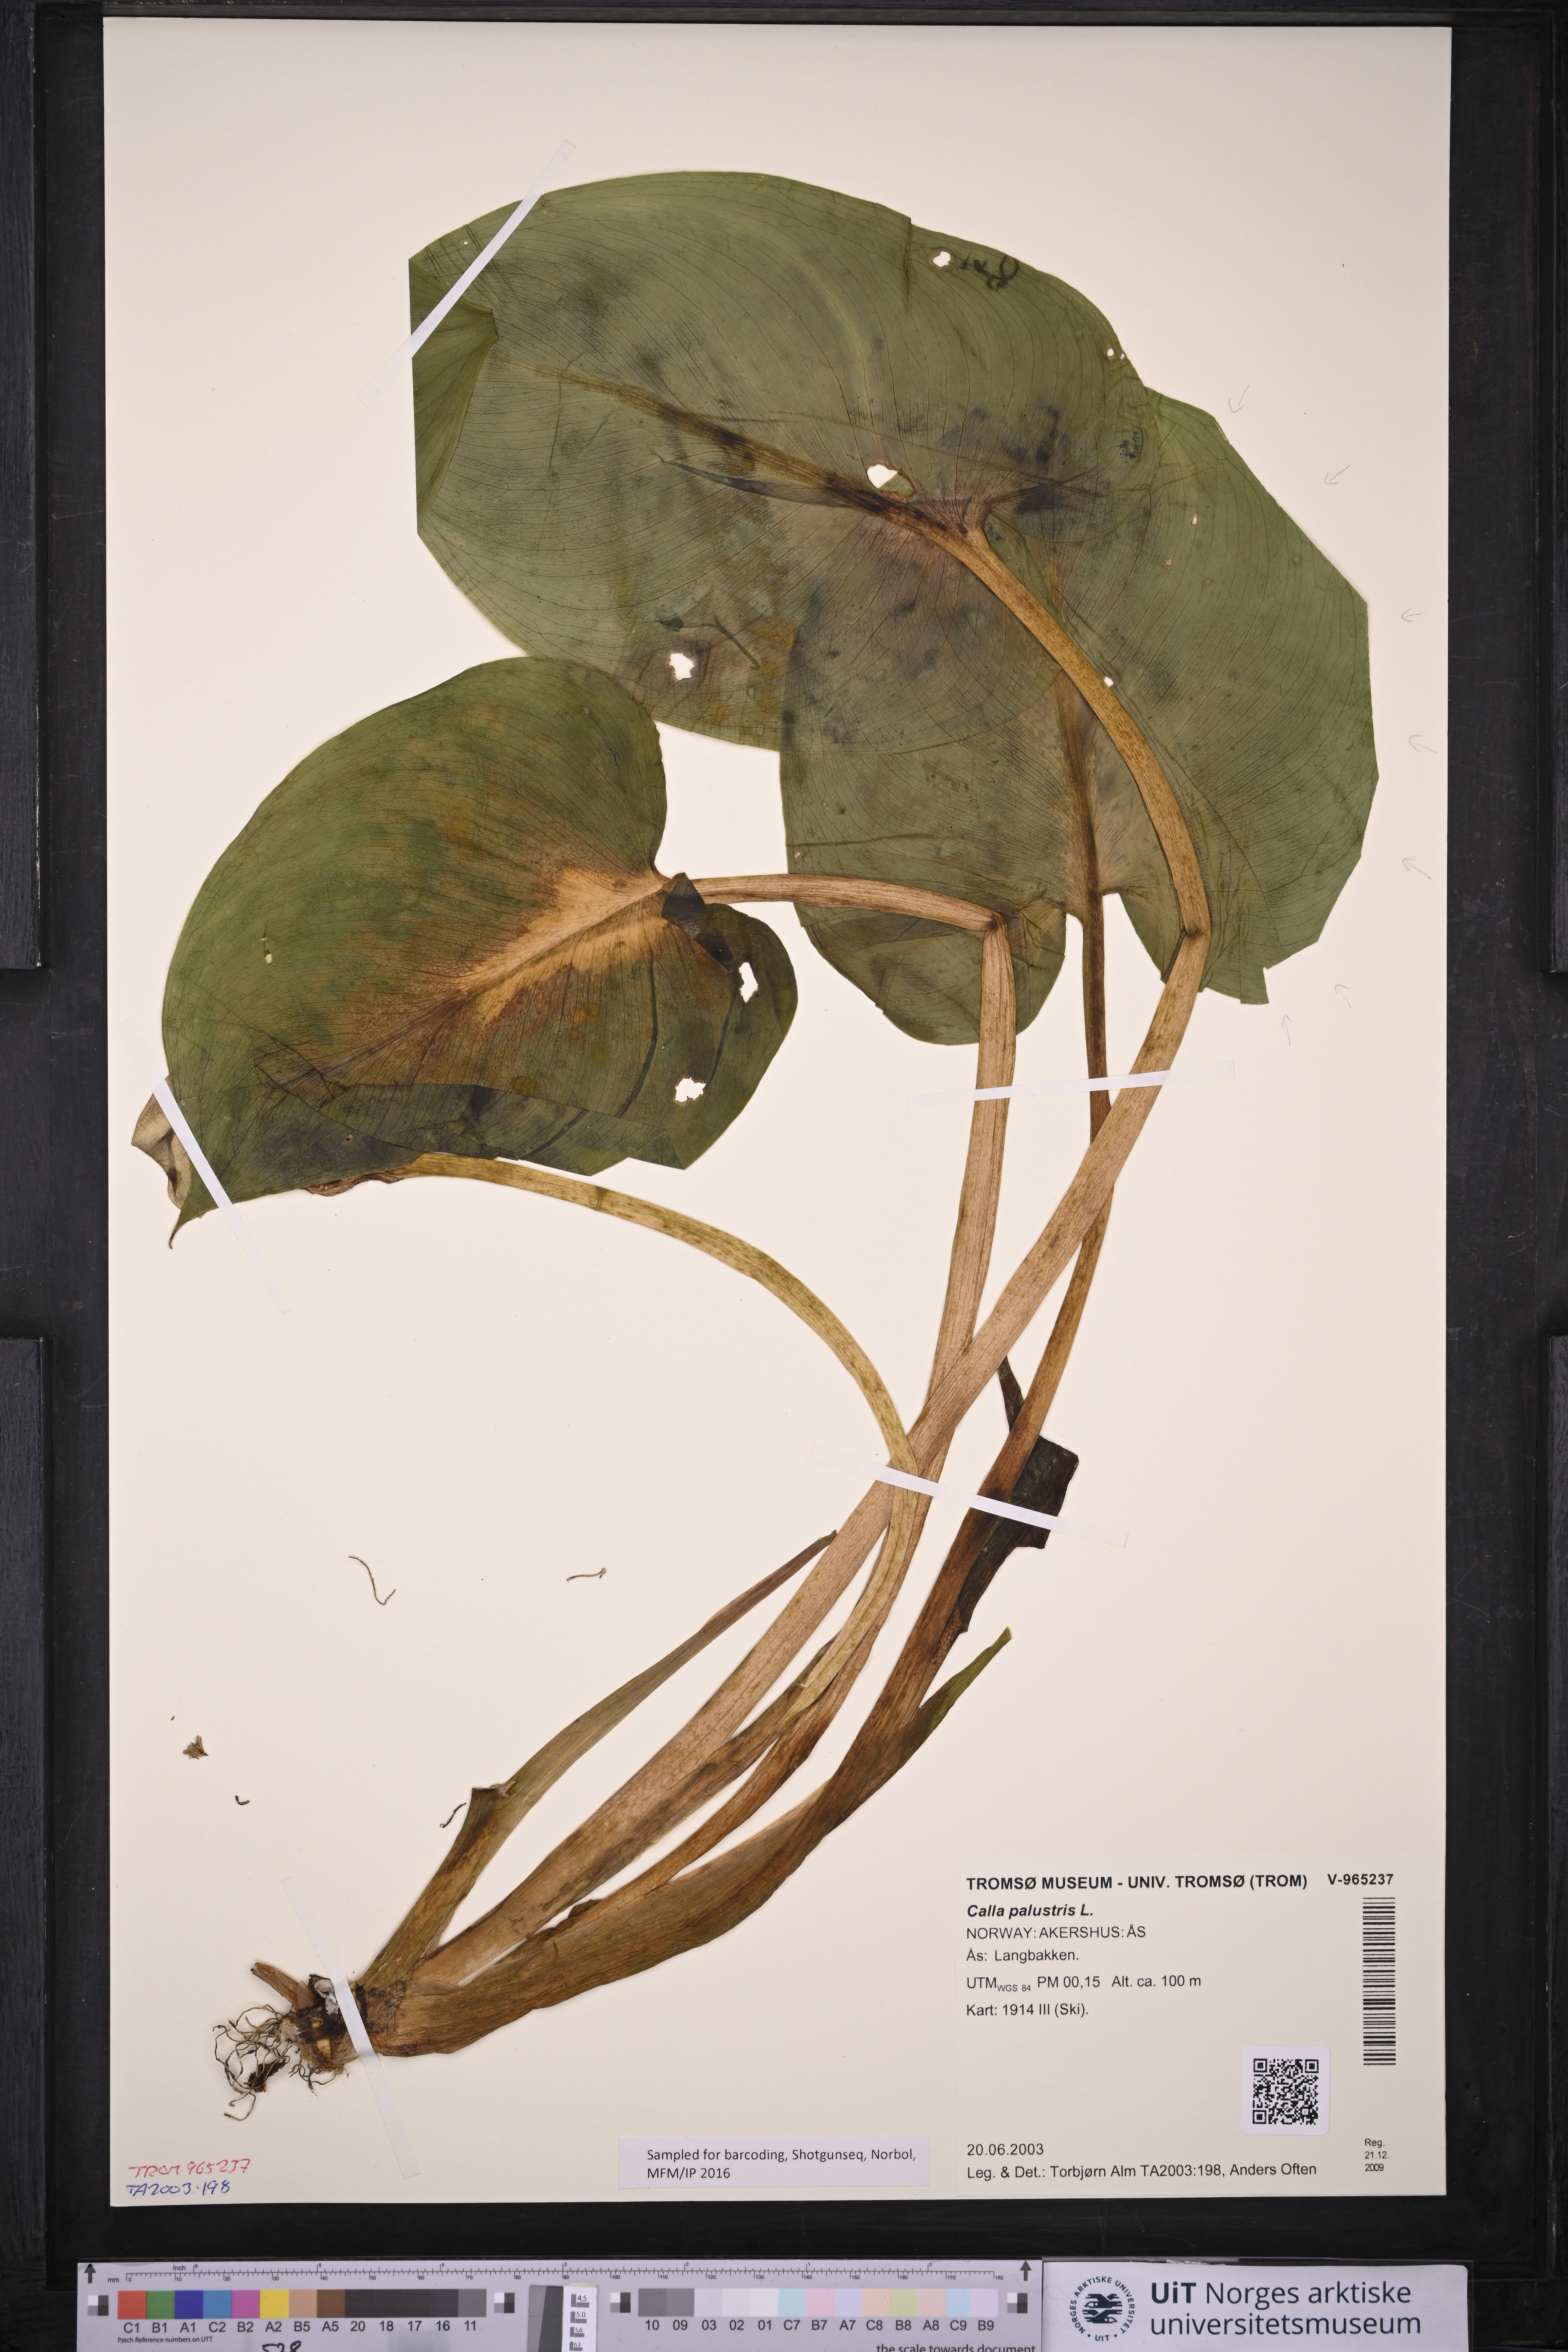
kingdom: Plantae
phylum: Tracheophyta
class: Liliopsida
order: Alismatales
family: Araceae
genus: Calla
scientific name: Calla palustris
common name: Bog arum
